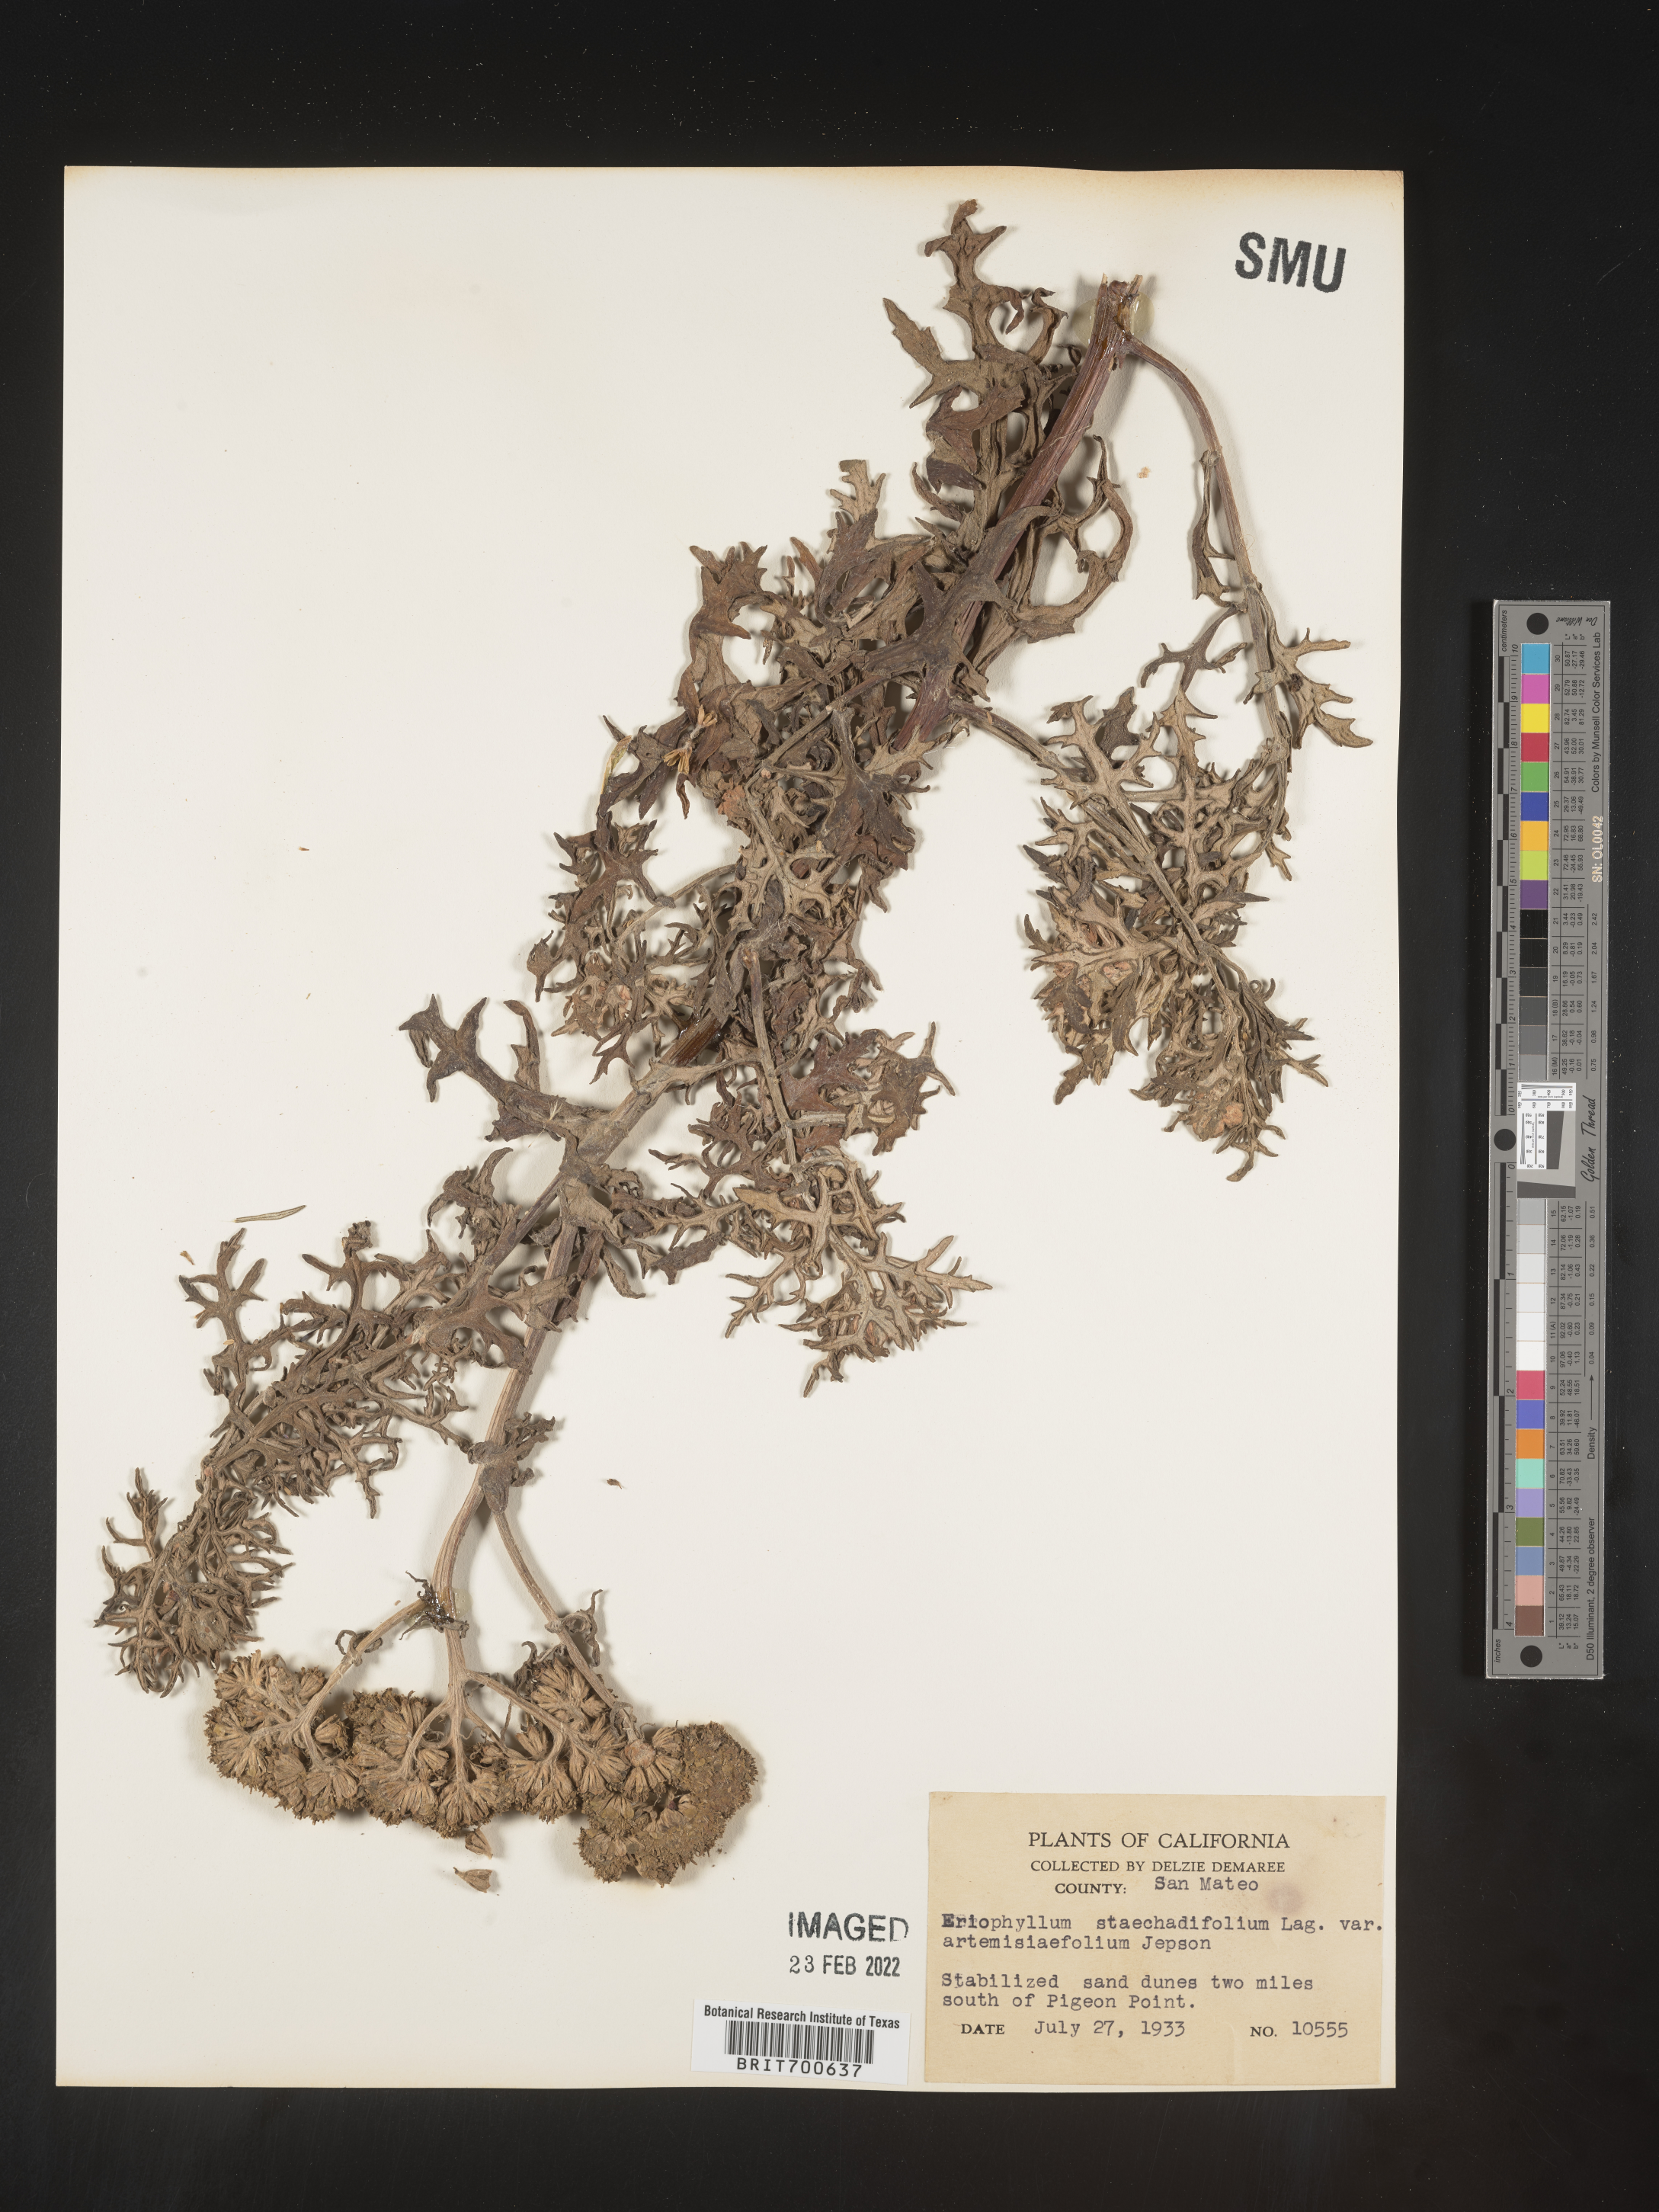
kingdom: Plantae
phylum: Tracheophyta
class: Magnoliopsida
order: Asterales
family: Asteraceae
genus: Eriophyllum
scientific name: Eriophyllum staechadifolium
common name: Lizardtail
